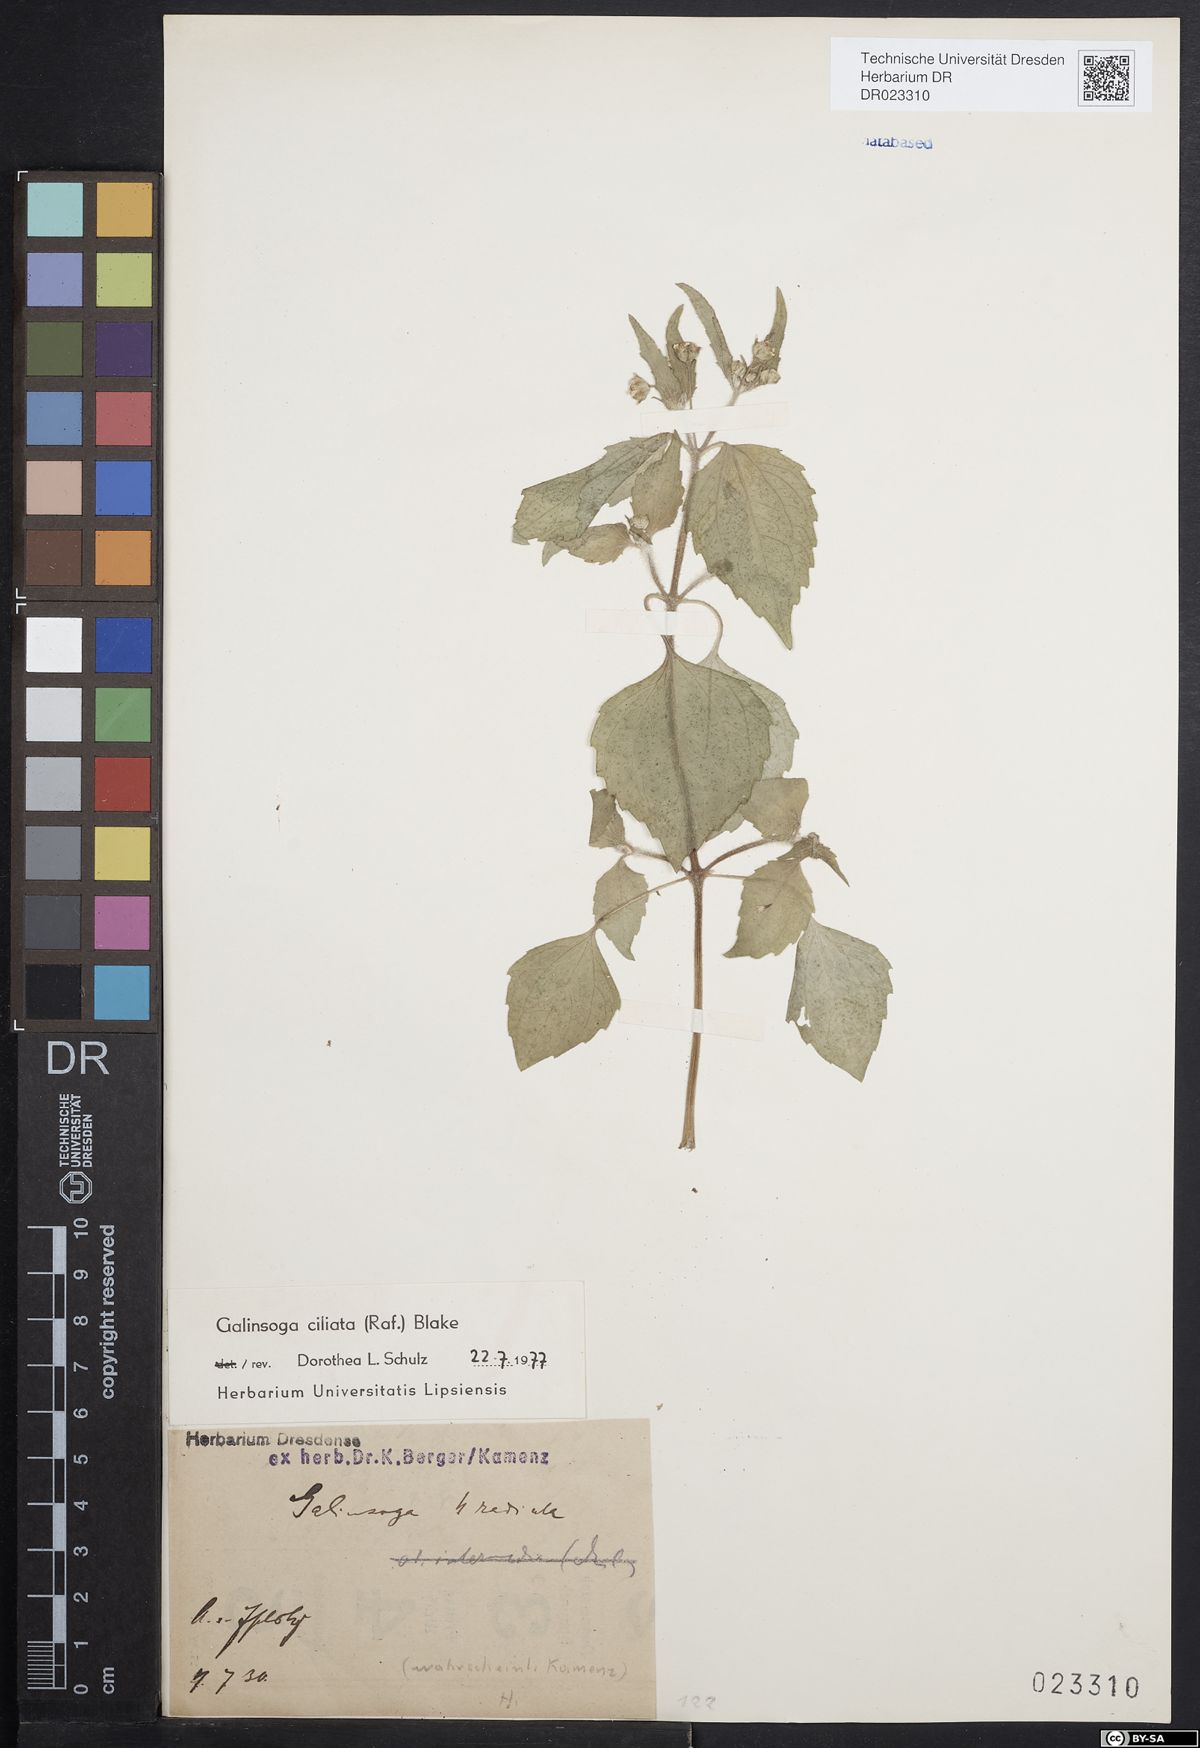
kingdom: Plantae
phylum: Tracheophyta
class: Magnoliopsida
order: Asterales
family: Asteraceae
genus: Galinsoga
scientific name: Galinsoga quadriradiata
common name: Shaggy soldier
